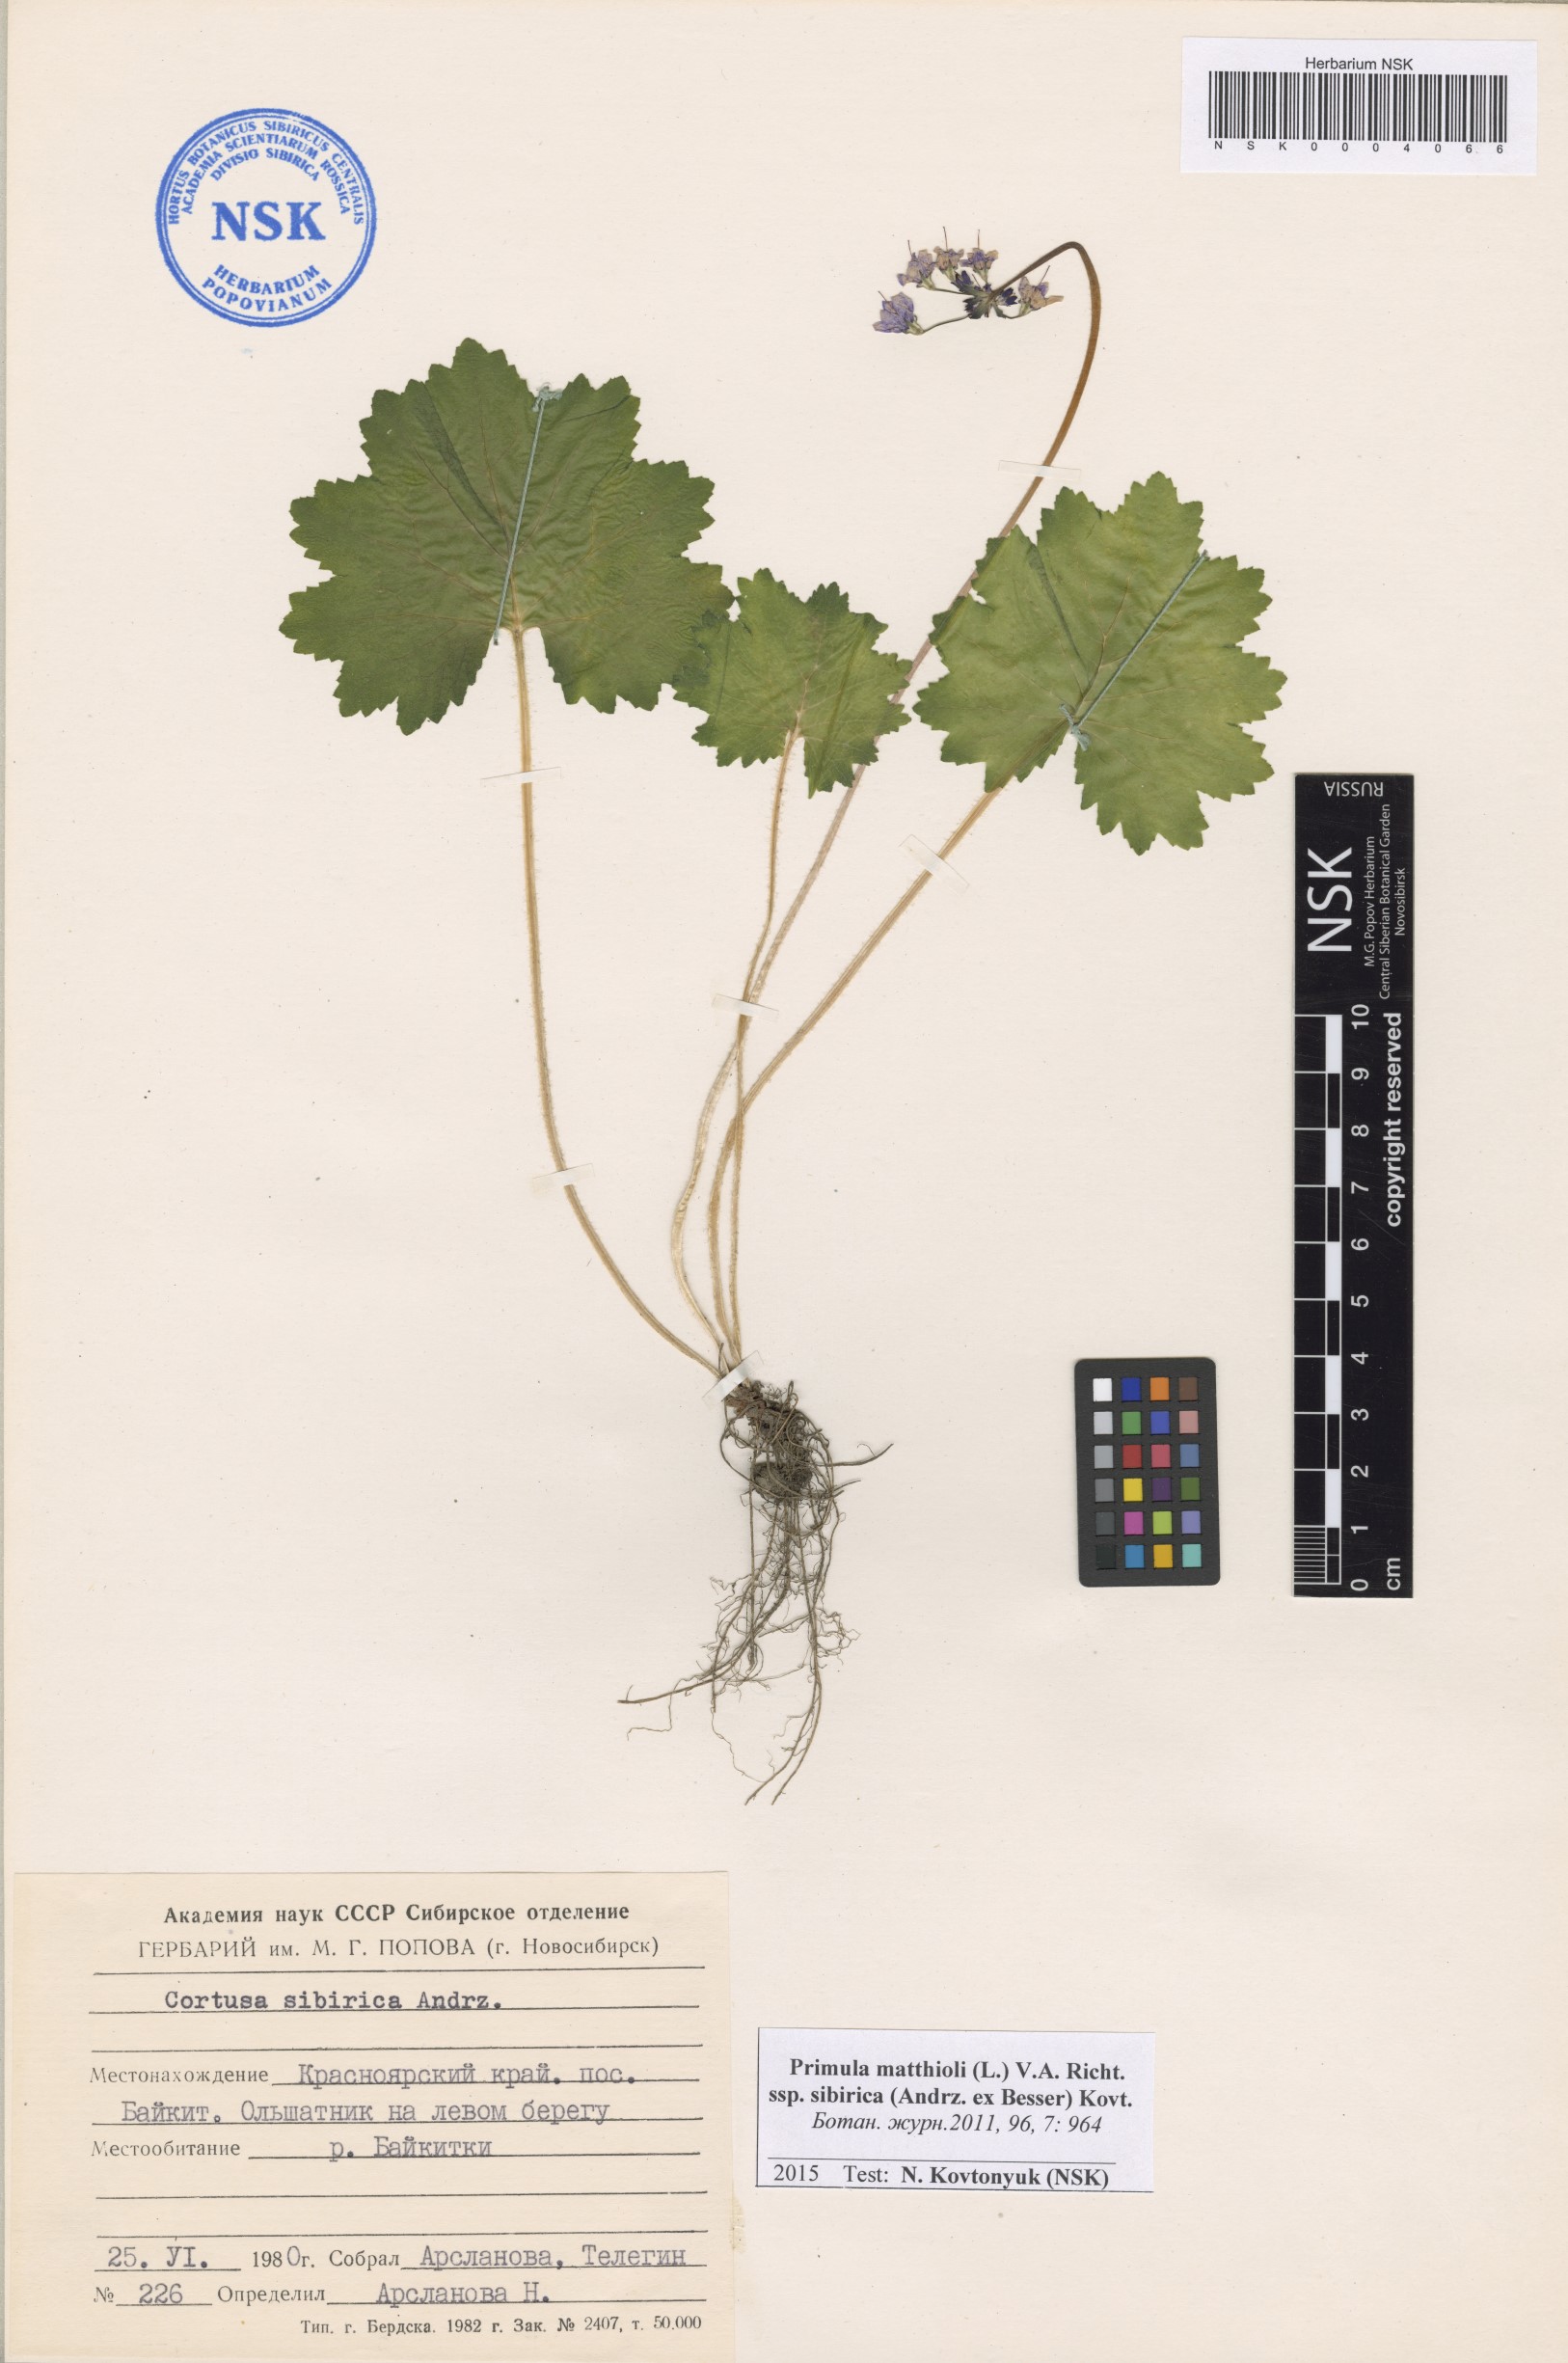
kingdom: Plantae
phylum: Tracheophyta
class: Magnoliopsida
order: Ericales
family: Primulaceae
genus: Primula
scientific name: Primula matthioli
